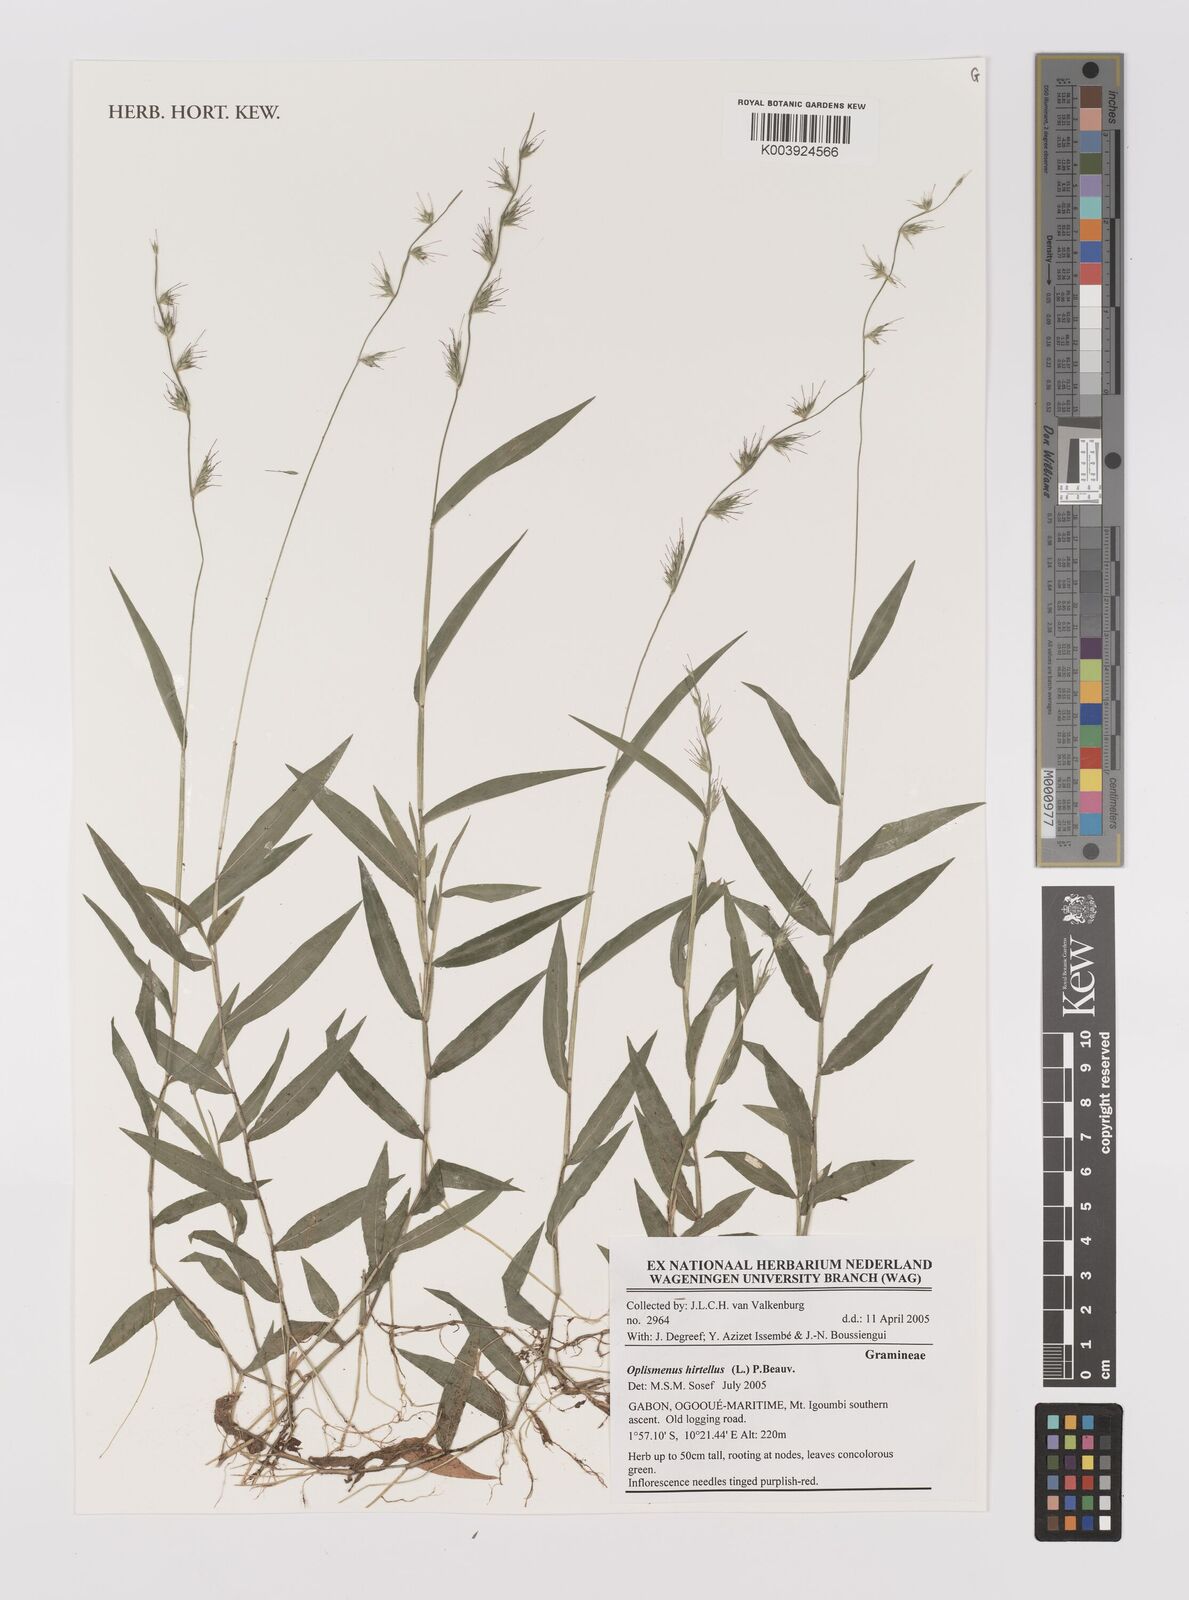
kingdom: Plantae
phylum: Tracheophyta
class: Liliopsida
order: Poales
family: Poaceae
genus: Oplismenus
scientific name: Oplismenus hirtellus
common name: Basketgrass
